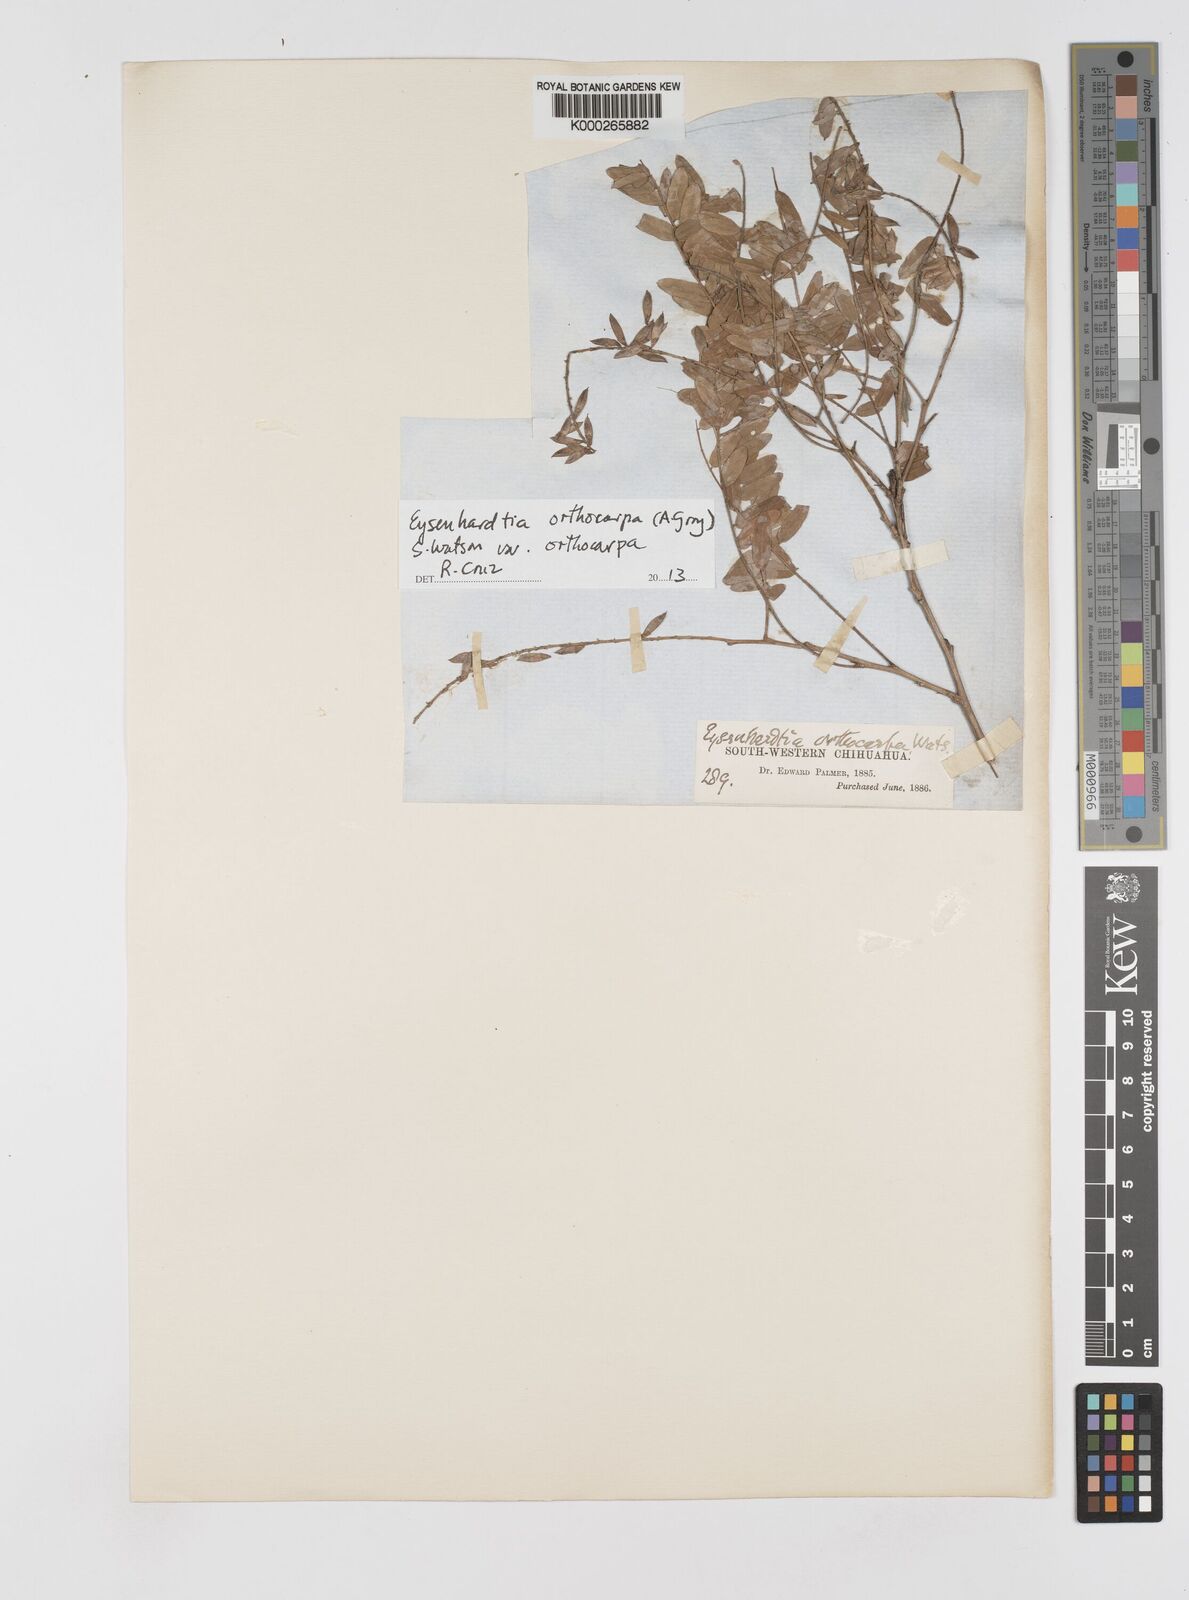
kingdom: Plantae
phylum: Tracheophyta
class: Magnoliopsida
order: Fabales
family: Fabaceae
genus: Eysenhardtia
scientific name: Eysenhardtia orthocarpa
